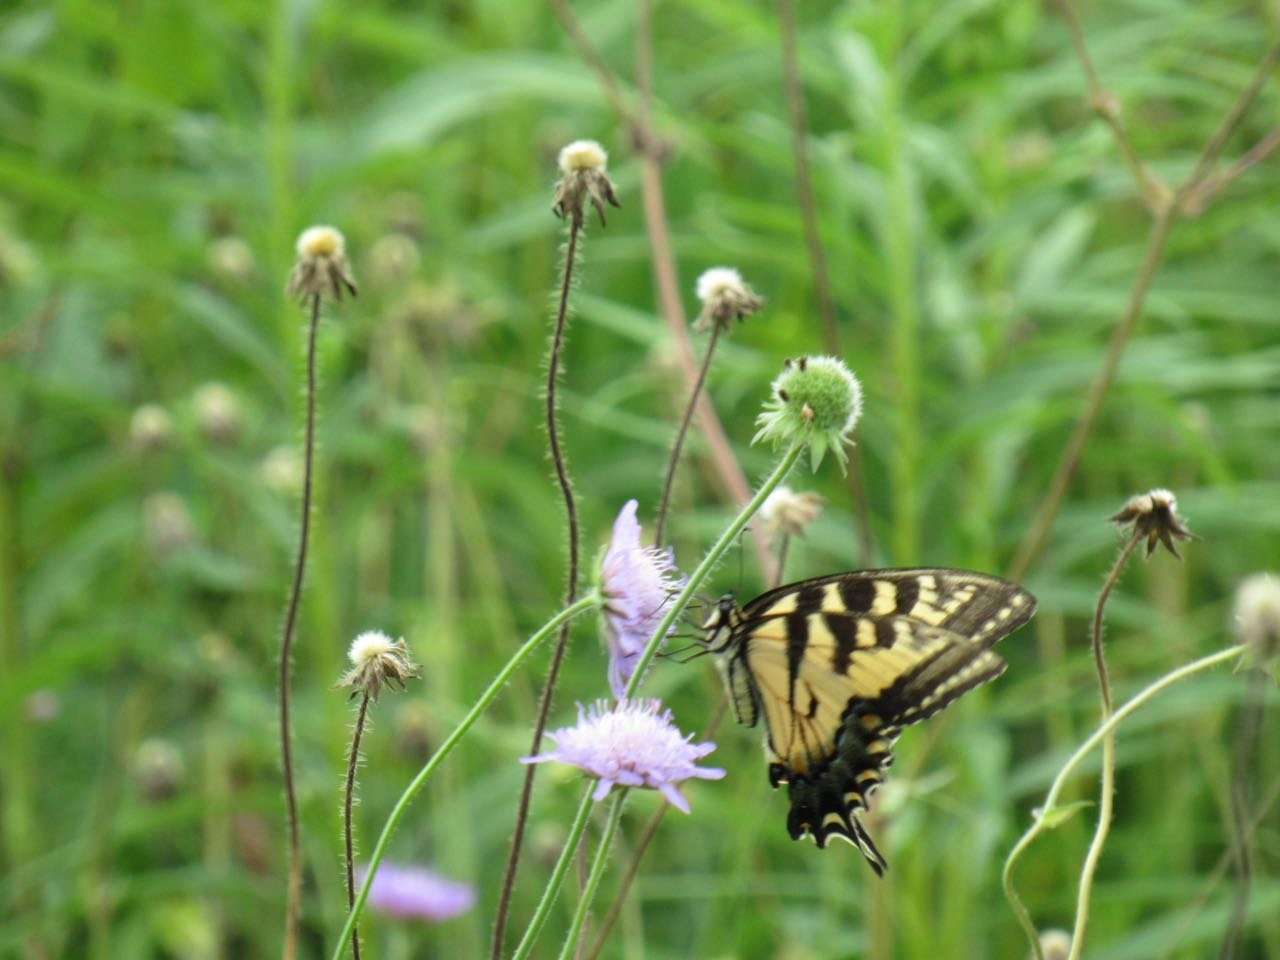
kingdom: Animalia
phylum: Arthropoda
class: Insecta
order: Lepidoptera
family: Papilionidae
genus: Pterourus
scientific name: Pterourus
